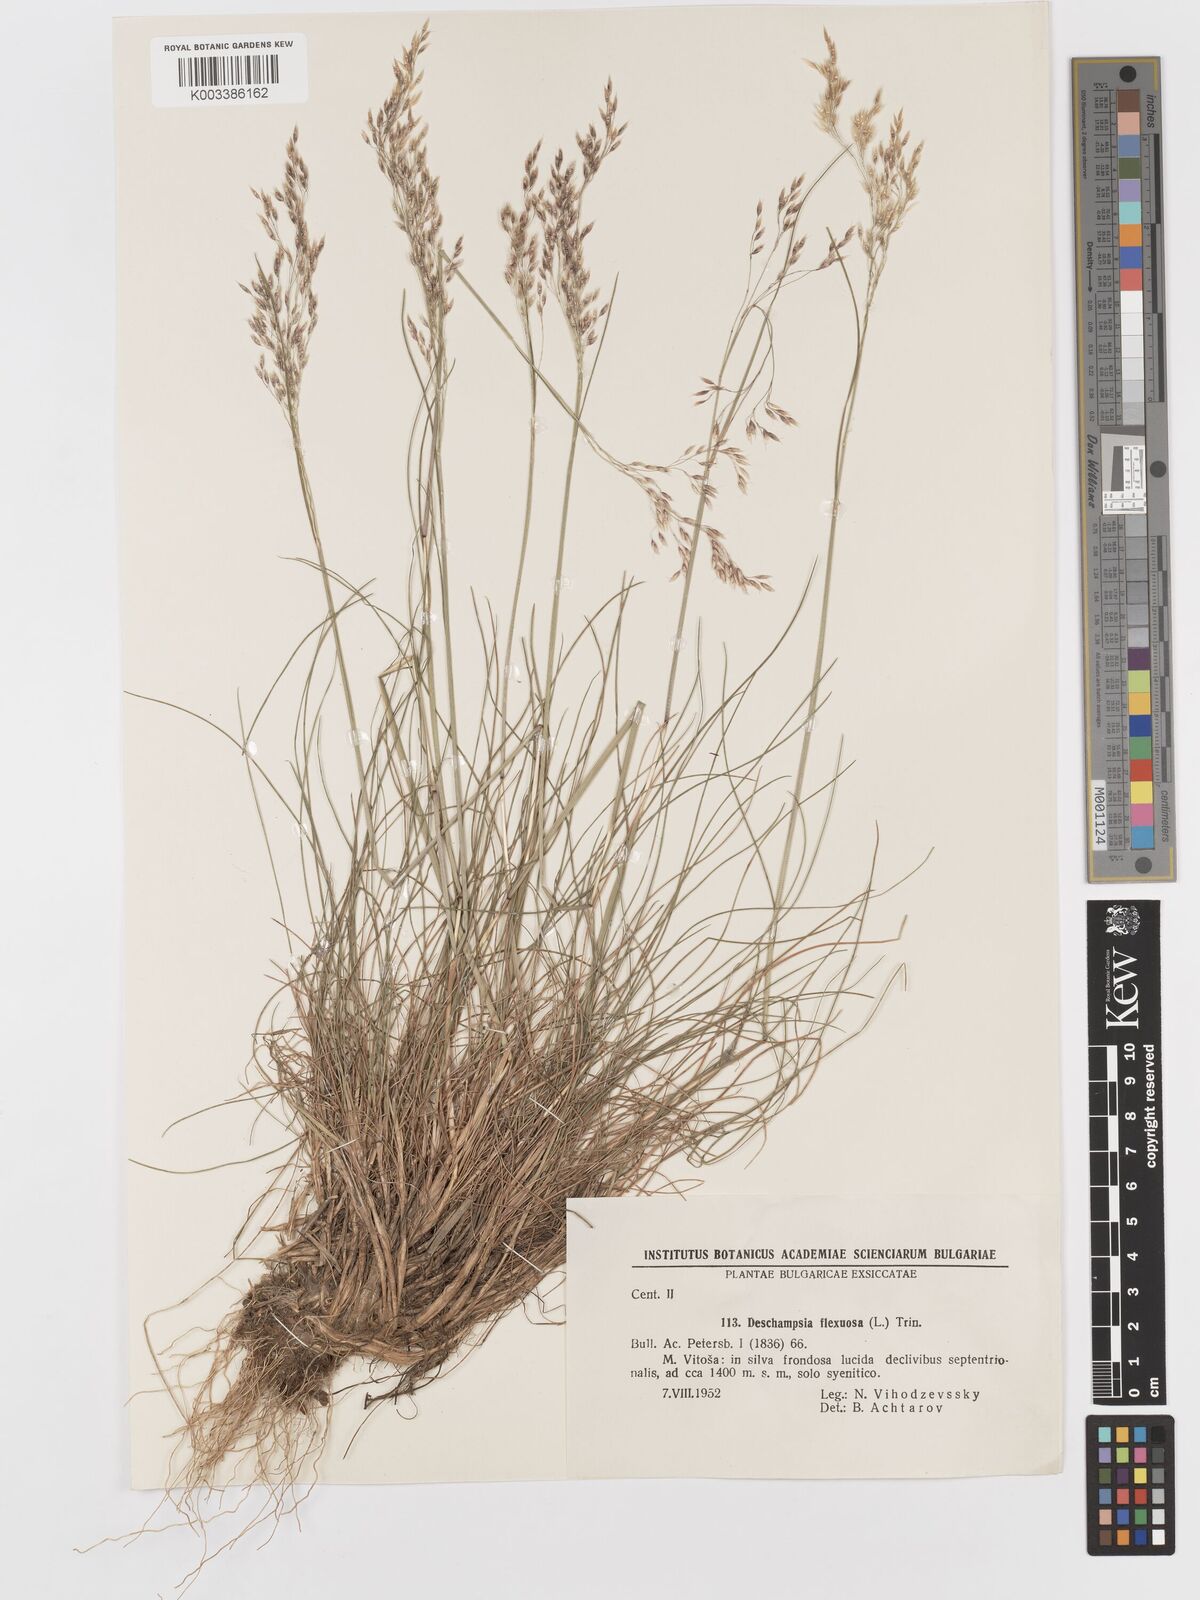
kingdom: Plantae
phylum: Tracheophyta
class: Liliopsida
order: Poales
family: Poaceae
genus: Avenella
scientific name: Avenella flexuosa
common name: Wavy hairgrass
